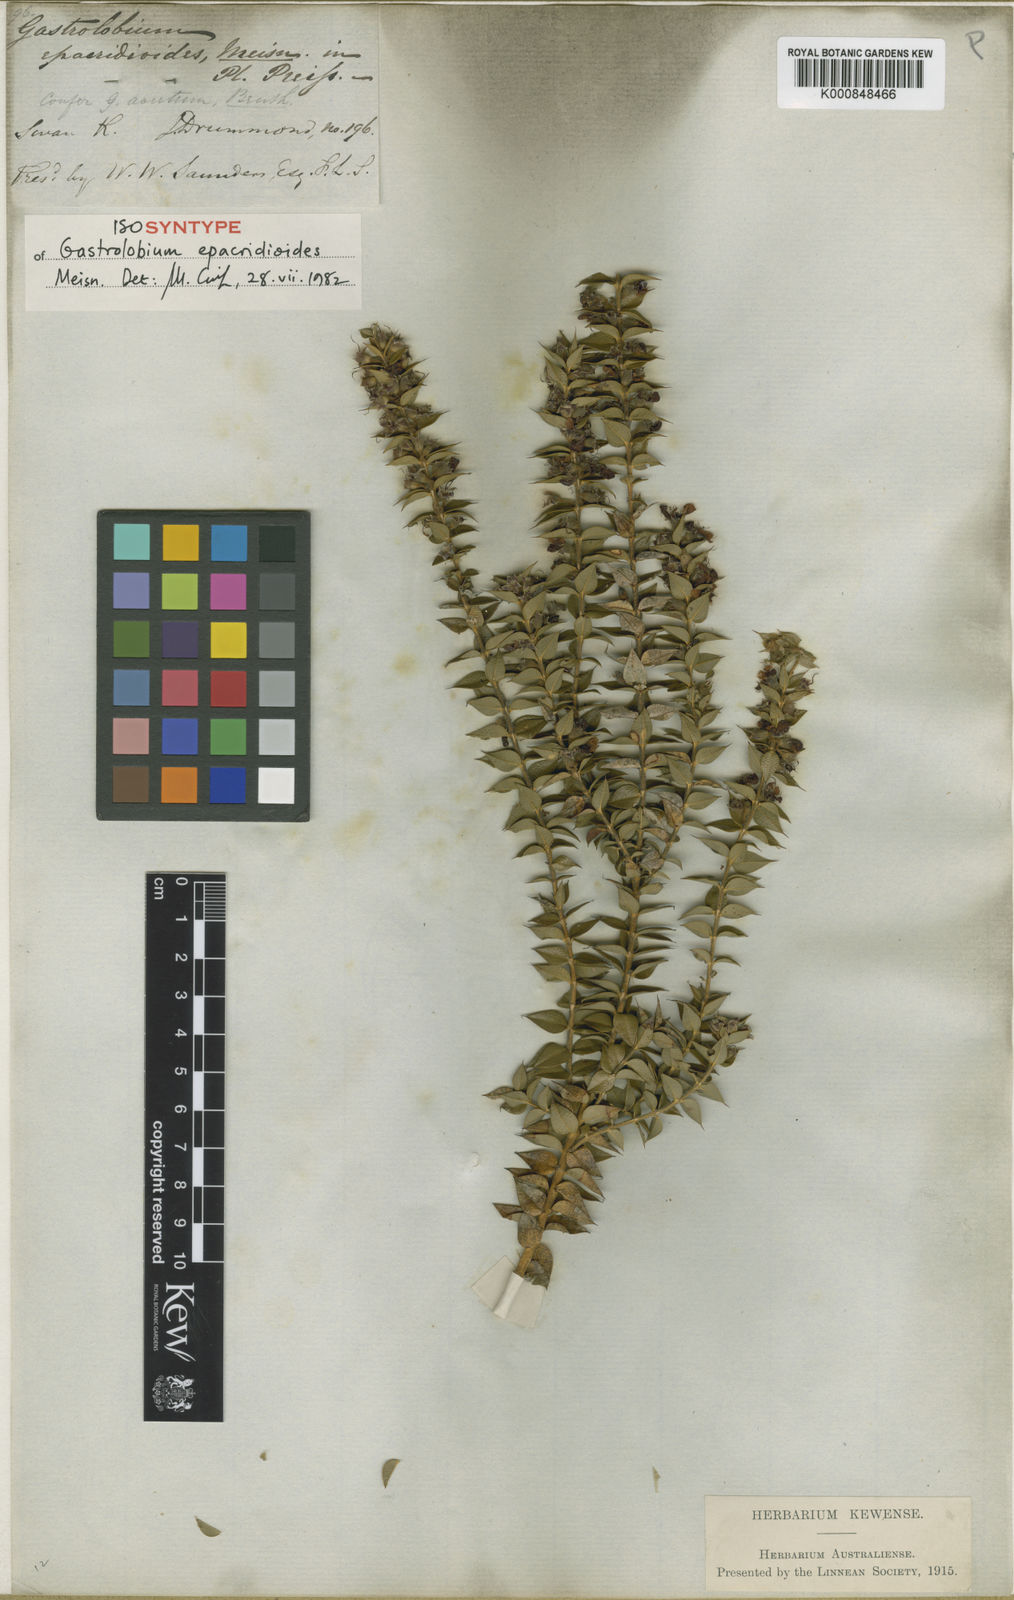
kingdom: Plantae
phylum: Tracheophyta
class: Magnoliopsida
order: Fabales
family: Fabaceae
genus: Gastrolobium
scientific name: Gastrolobium epacridioides
